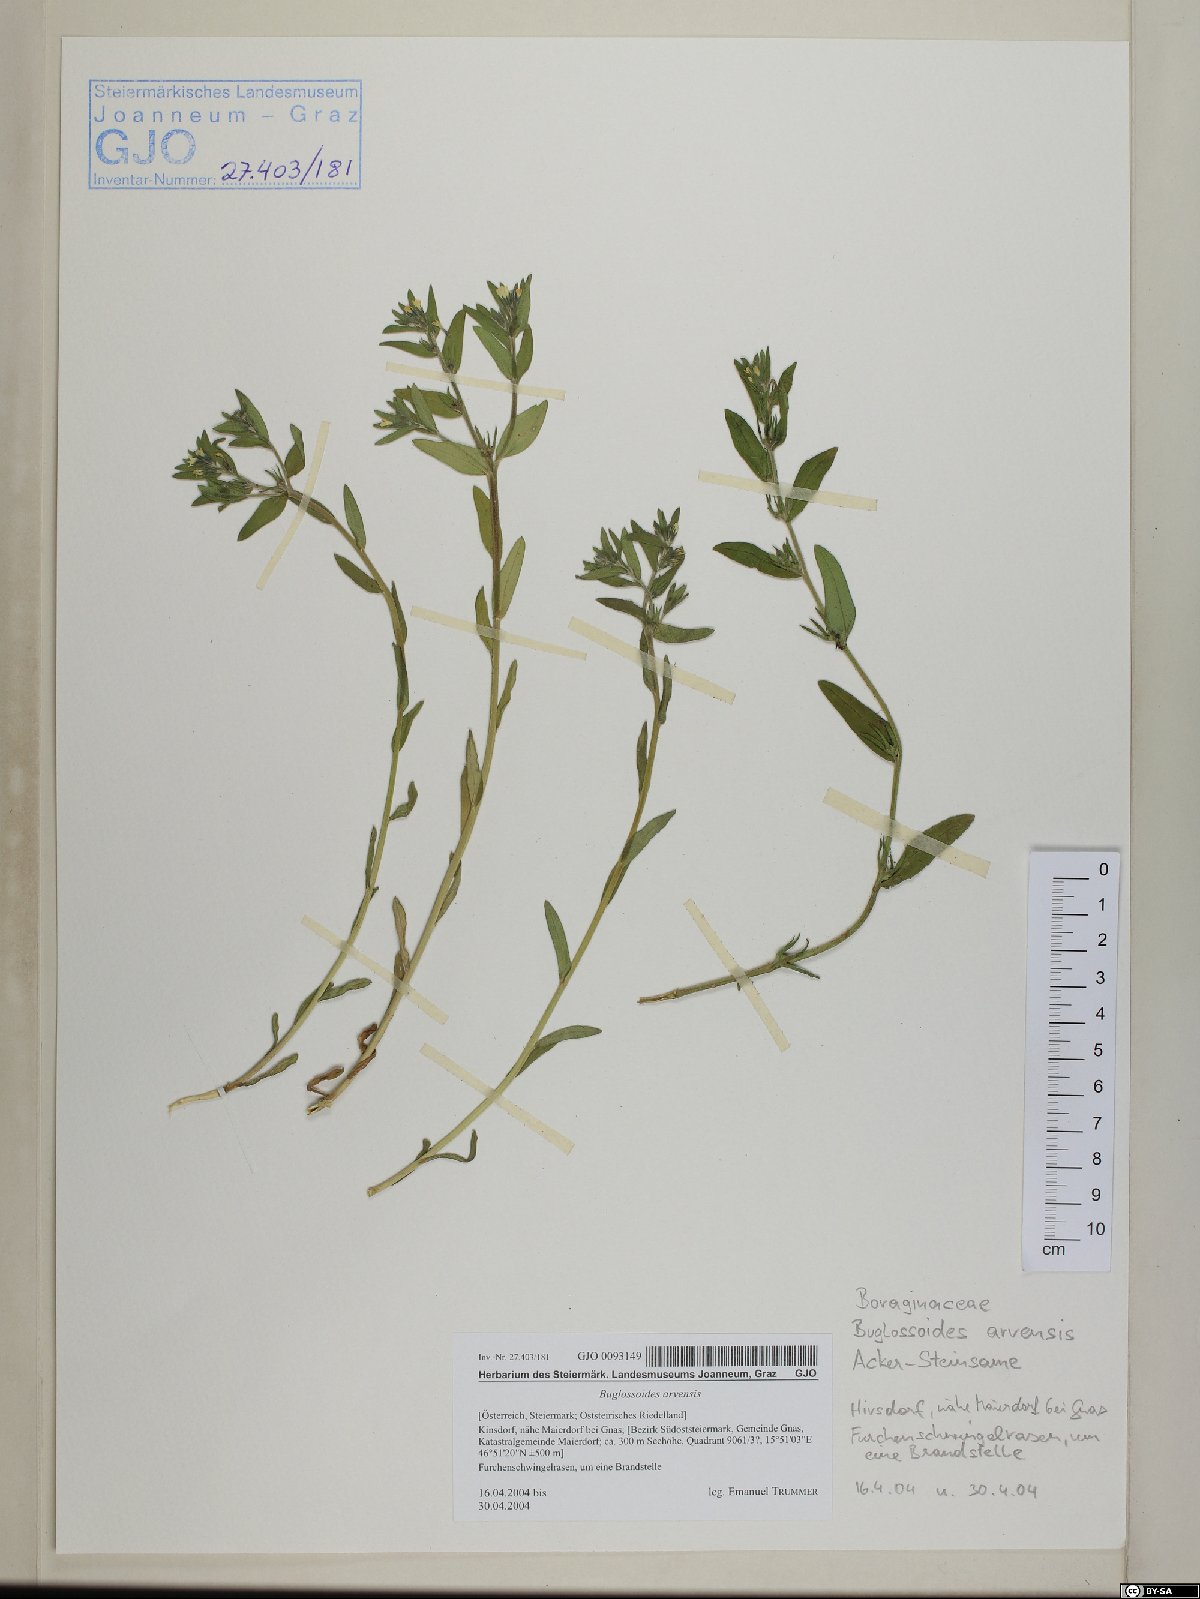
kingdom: Plantae
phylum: Tracheophyta
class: Magnoliopsida
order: Boraginales
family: Boraginaceae
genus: Buglossoides
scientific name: Buglossoides arvensis
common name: Corn gromwell
